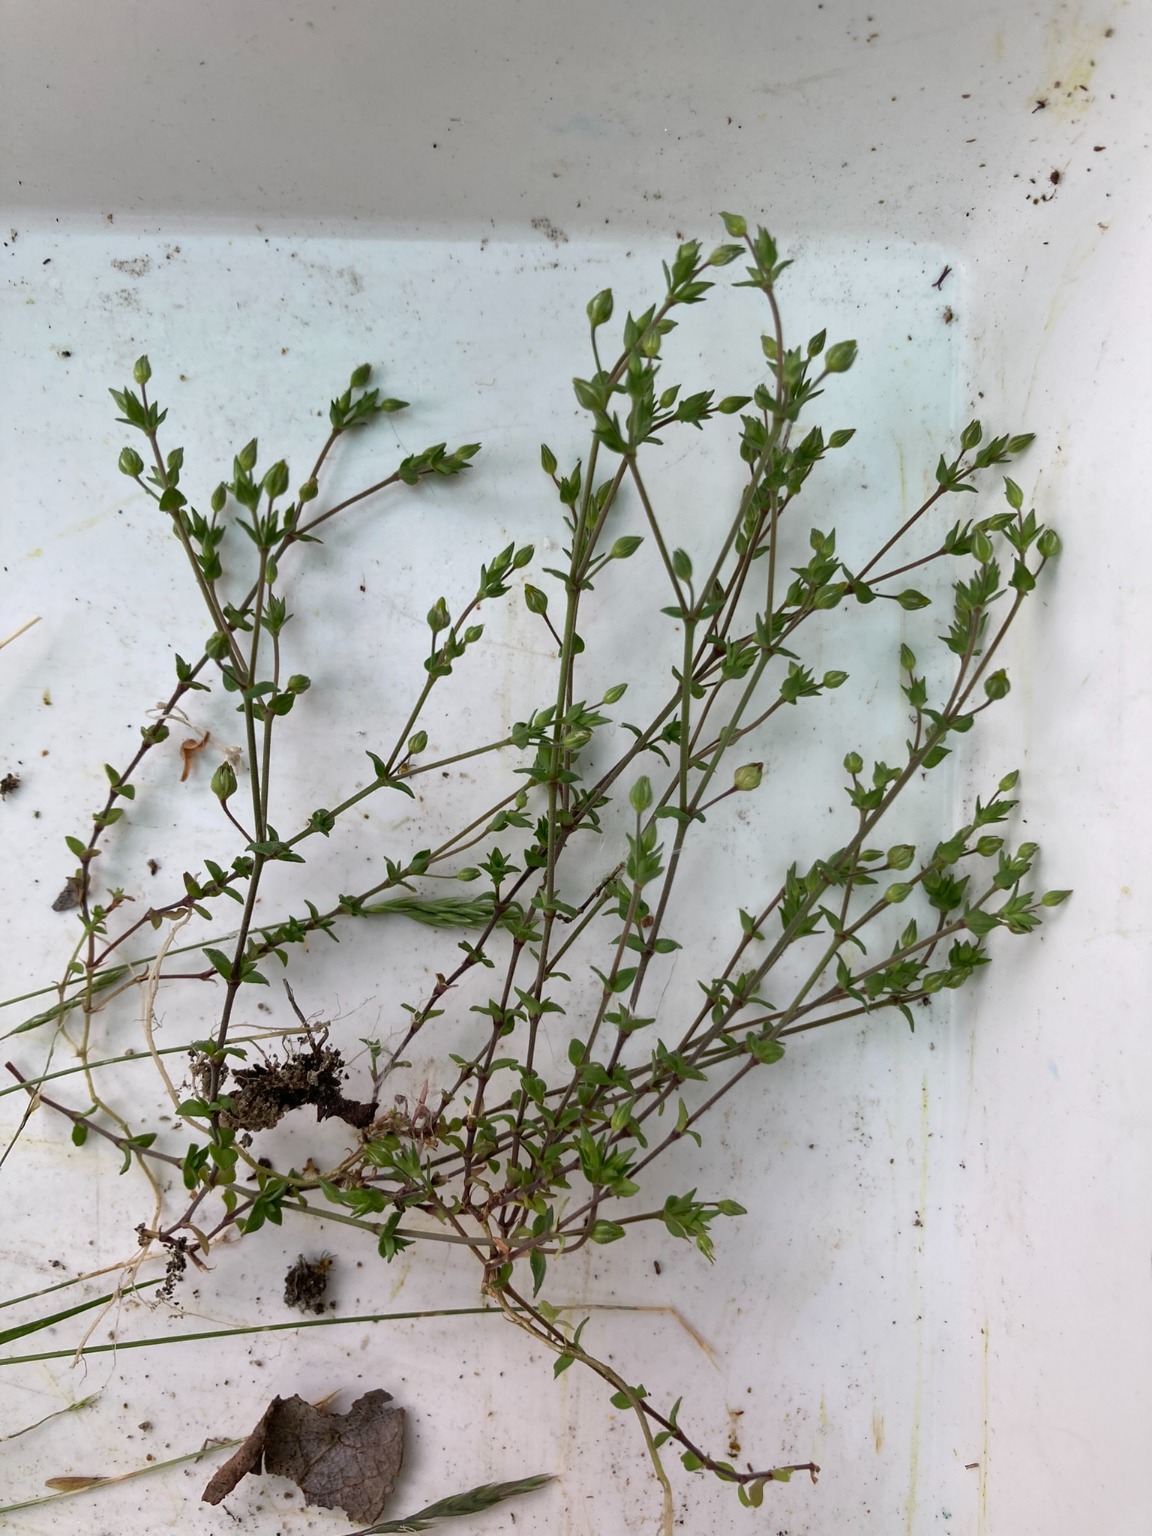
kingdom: Plantae
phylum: Tracheophyta
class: Magnoliopsida
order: Caryophyllales
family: Caryophyllaceae
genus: Arenaria
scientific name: Arenaria serpyllifolia
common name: Almindelig markarve
